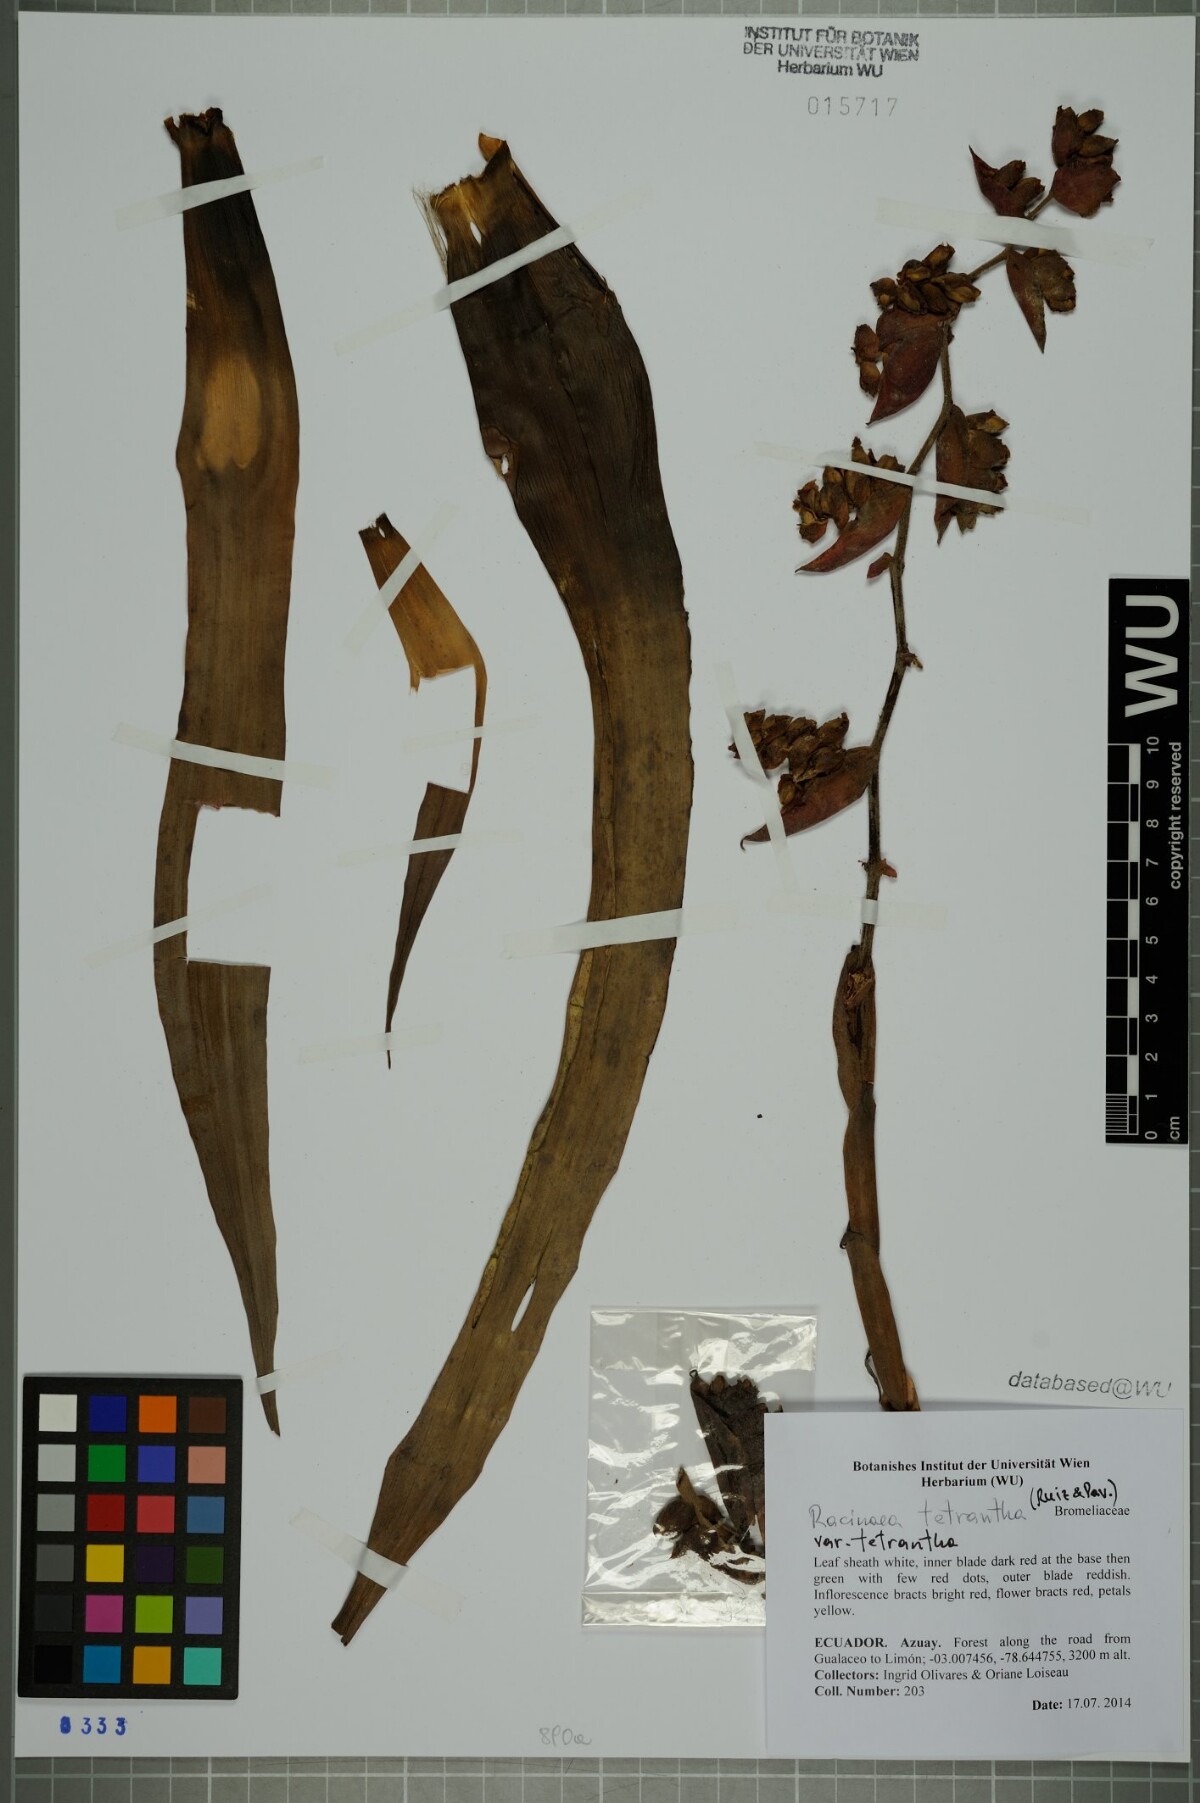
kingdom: Plantae
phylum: Tracheophyta
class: Liliopsida
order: Poales
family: Bromeliaceae
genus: Racinaea
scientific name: Racinaea tetrantha
